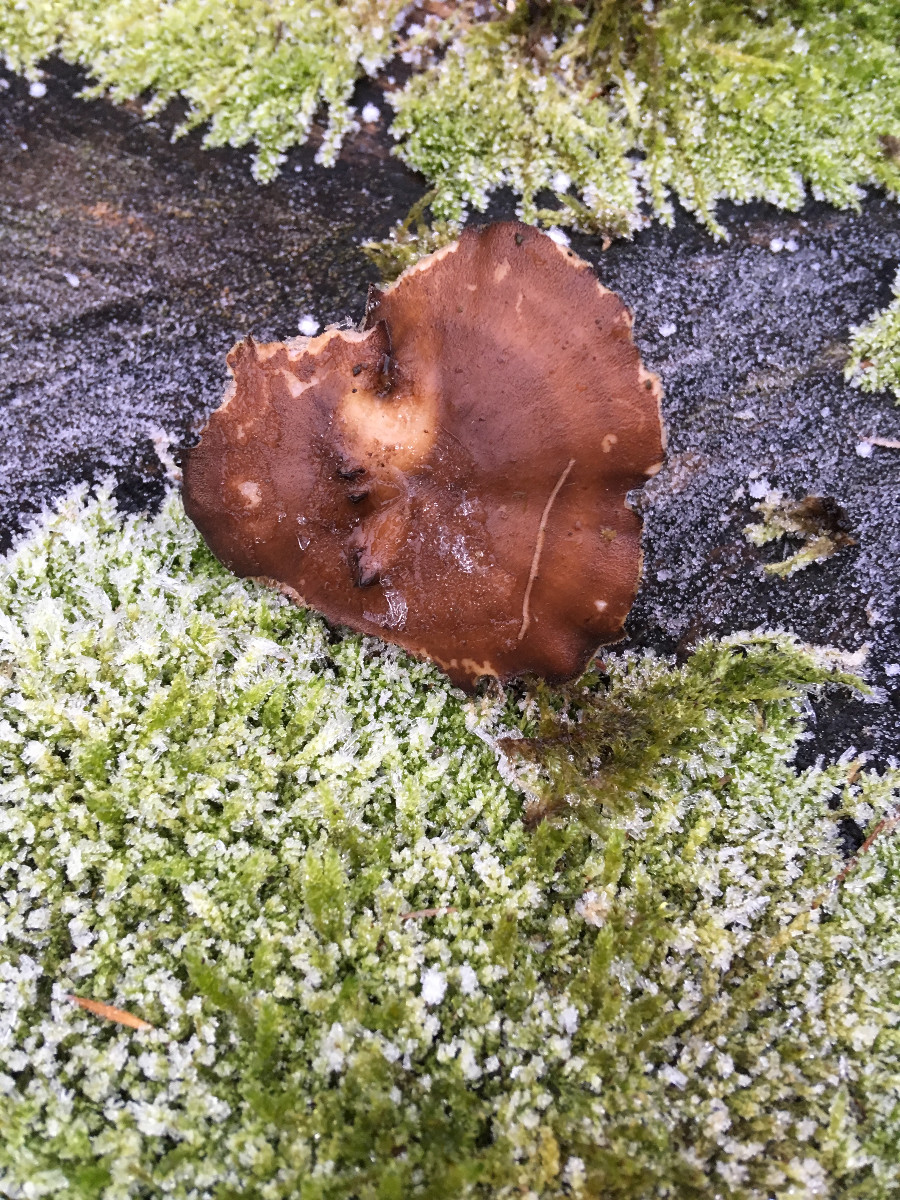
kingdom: Fungi
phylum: Basidiomycota
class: Agaricomycetes
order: Polyporales
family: Polyporaceae
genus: Lentinus
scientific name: Lentinus brumalis
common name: vinter-stilkporesvamp
